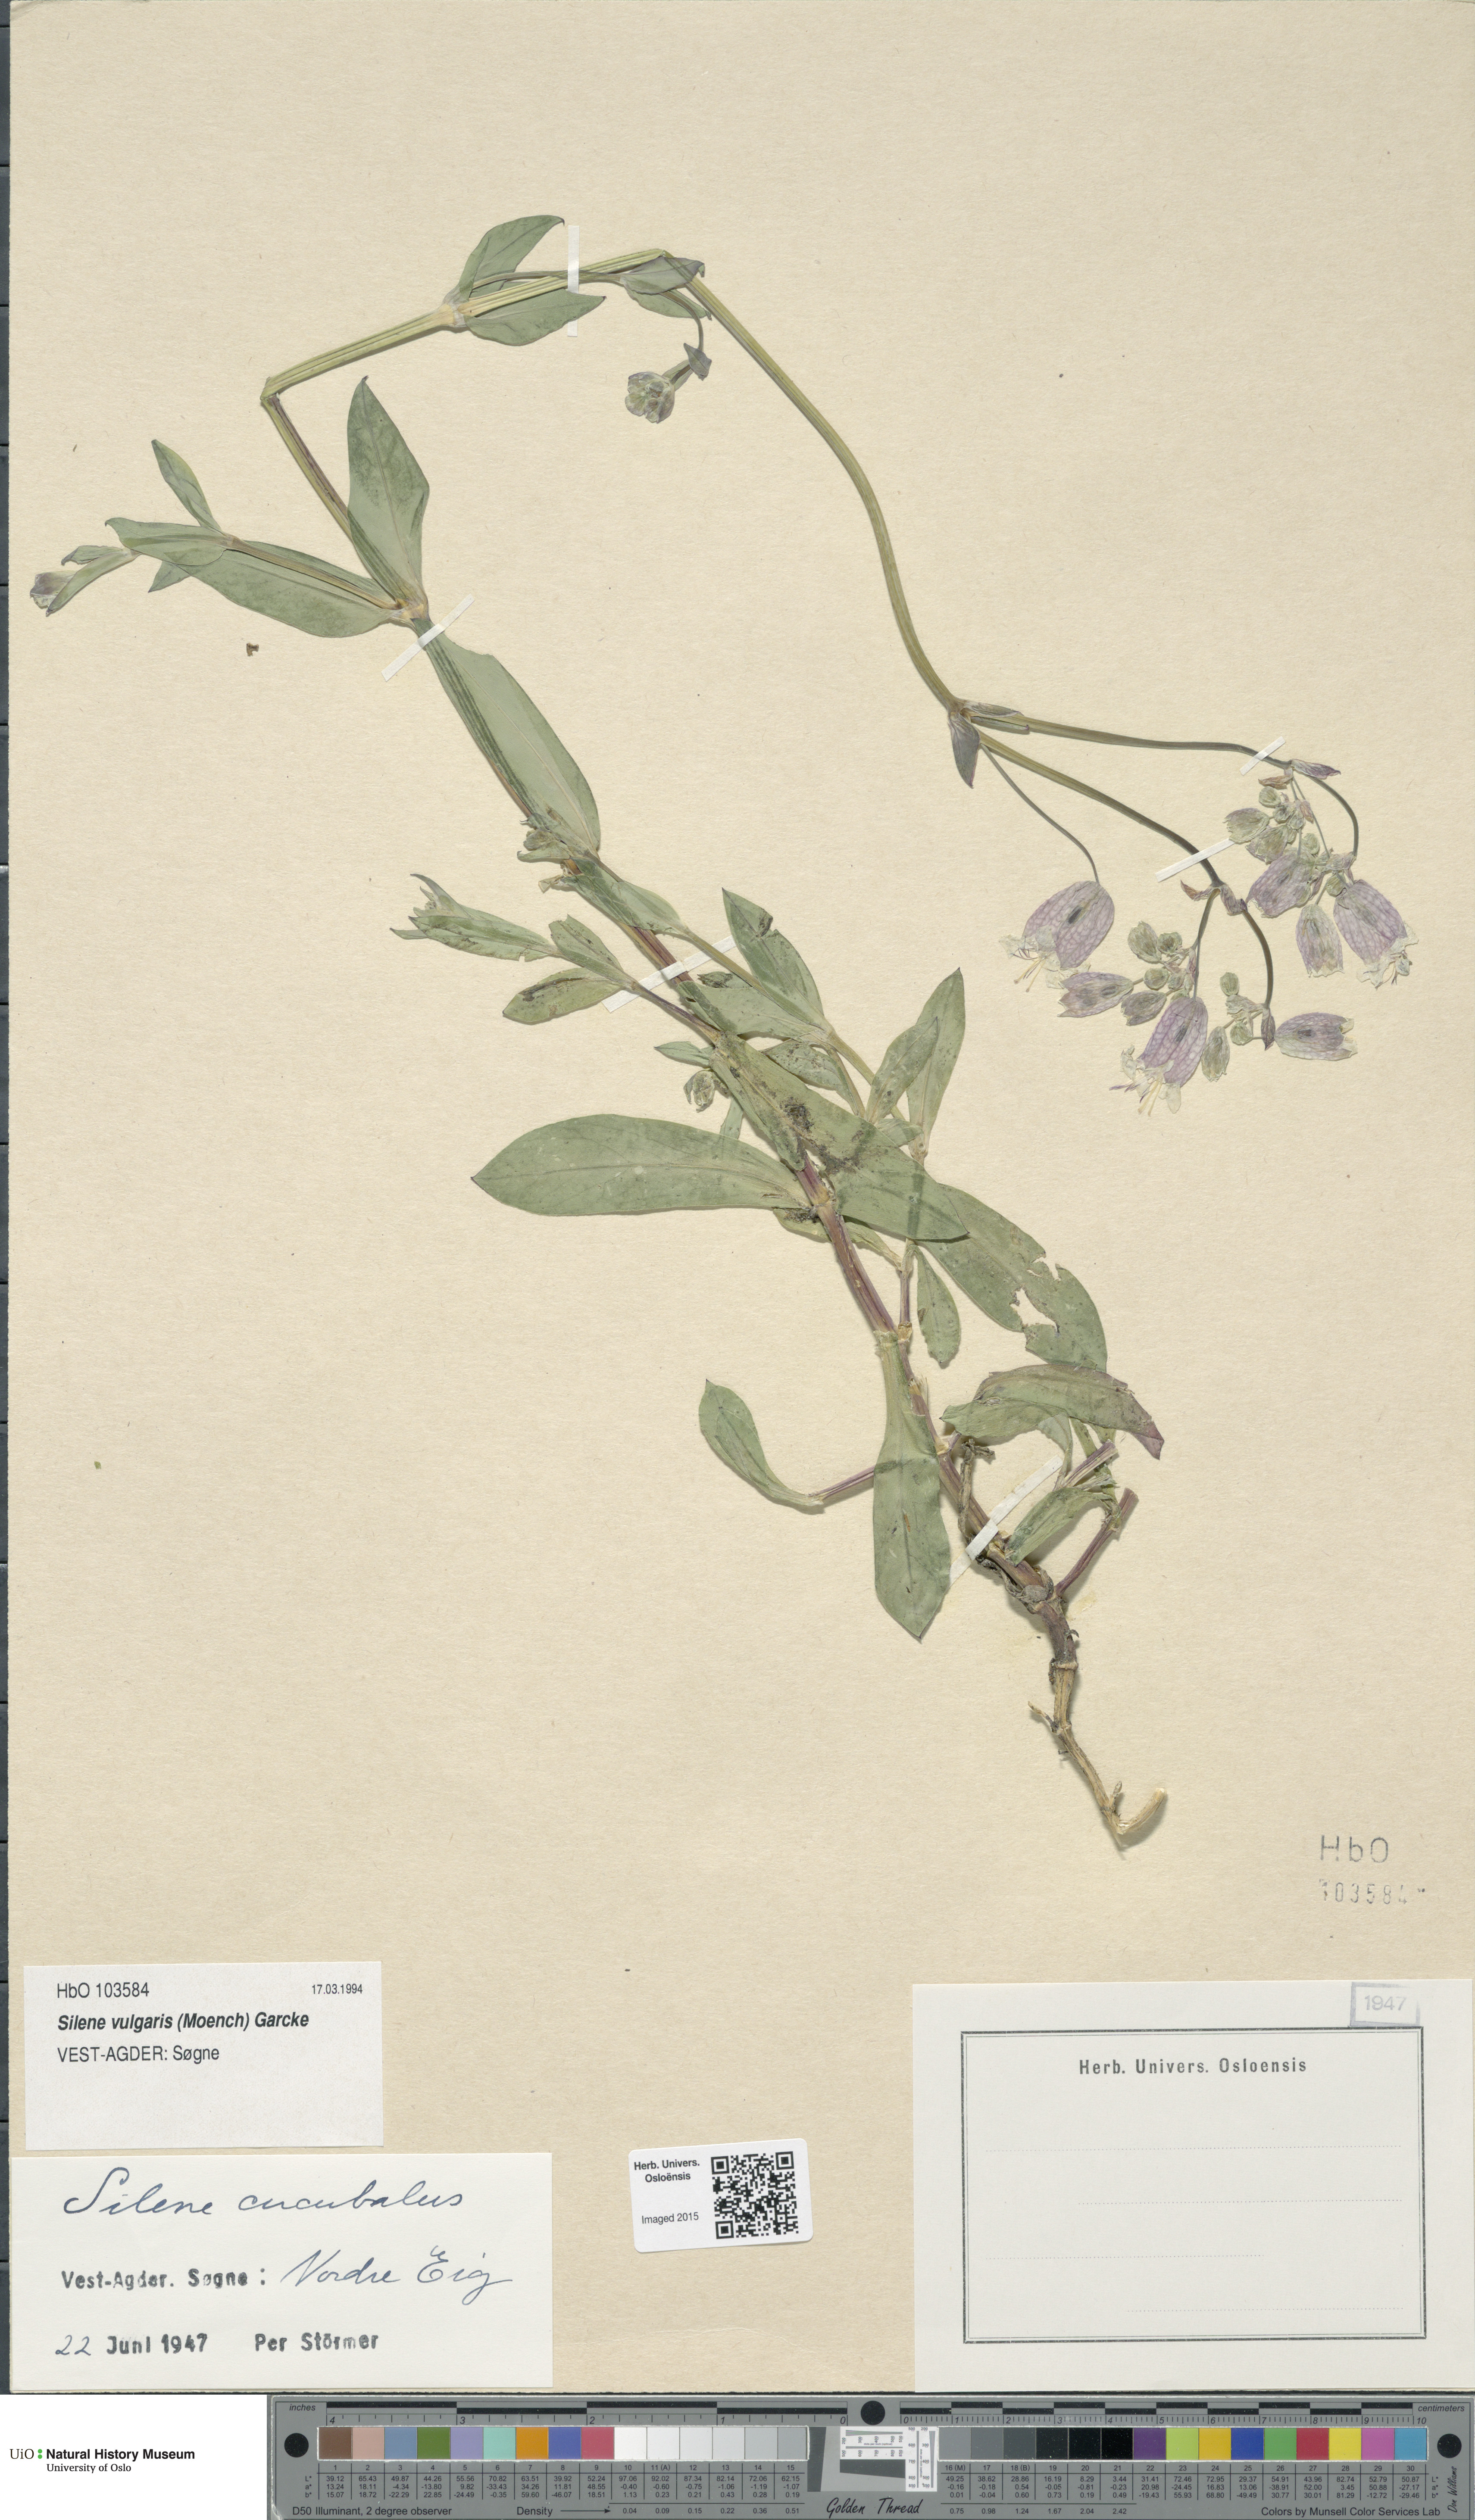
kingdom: Plantae
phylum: Tracheophyta
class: Magnoliopsida
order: Caryophyllales
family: Caryophyllaceae
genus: Silene
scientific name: Silene vulgaris
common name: Bladder campion
